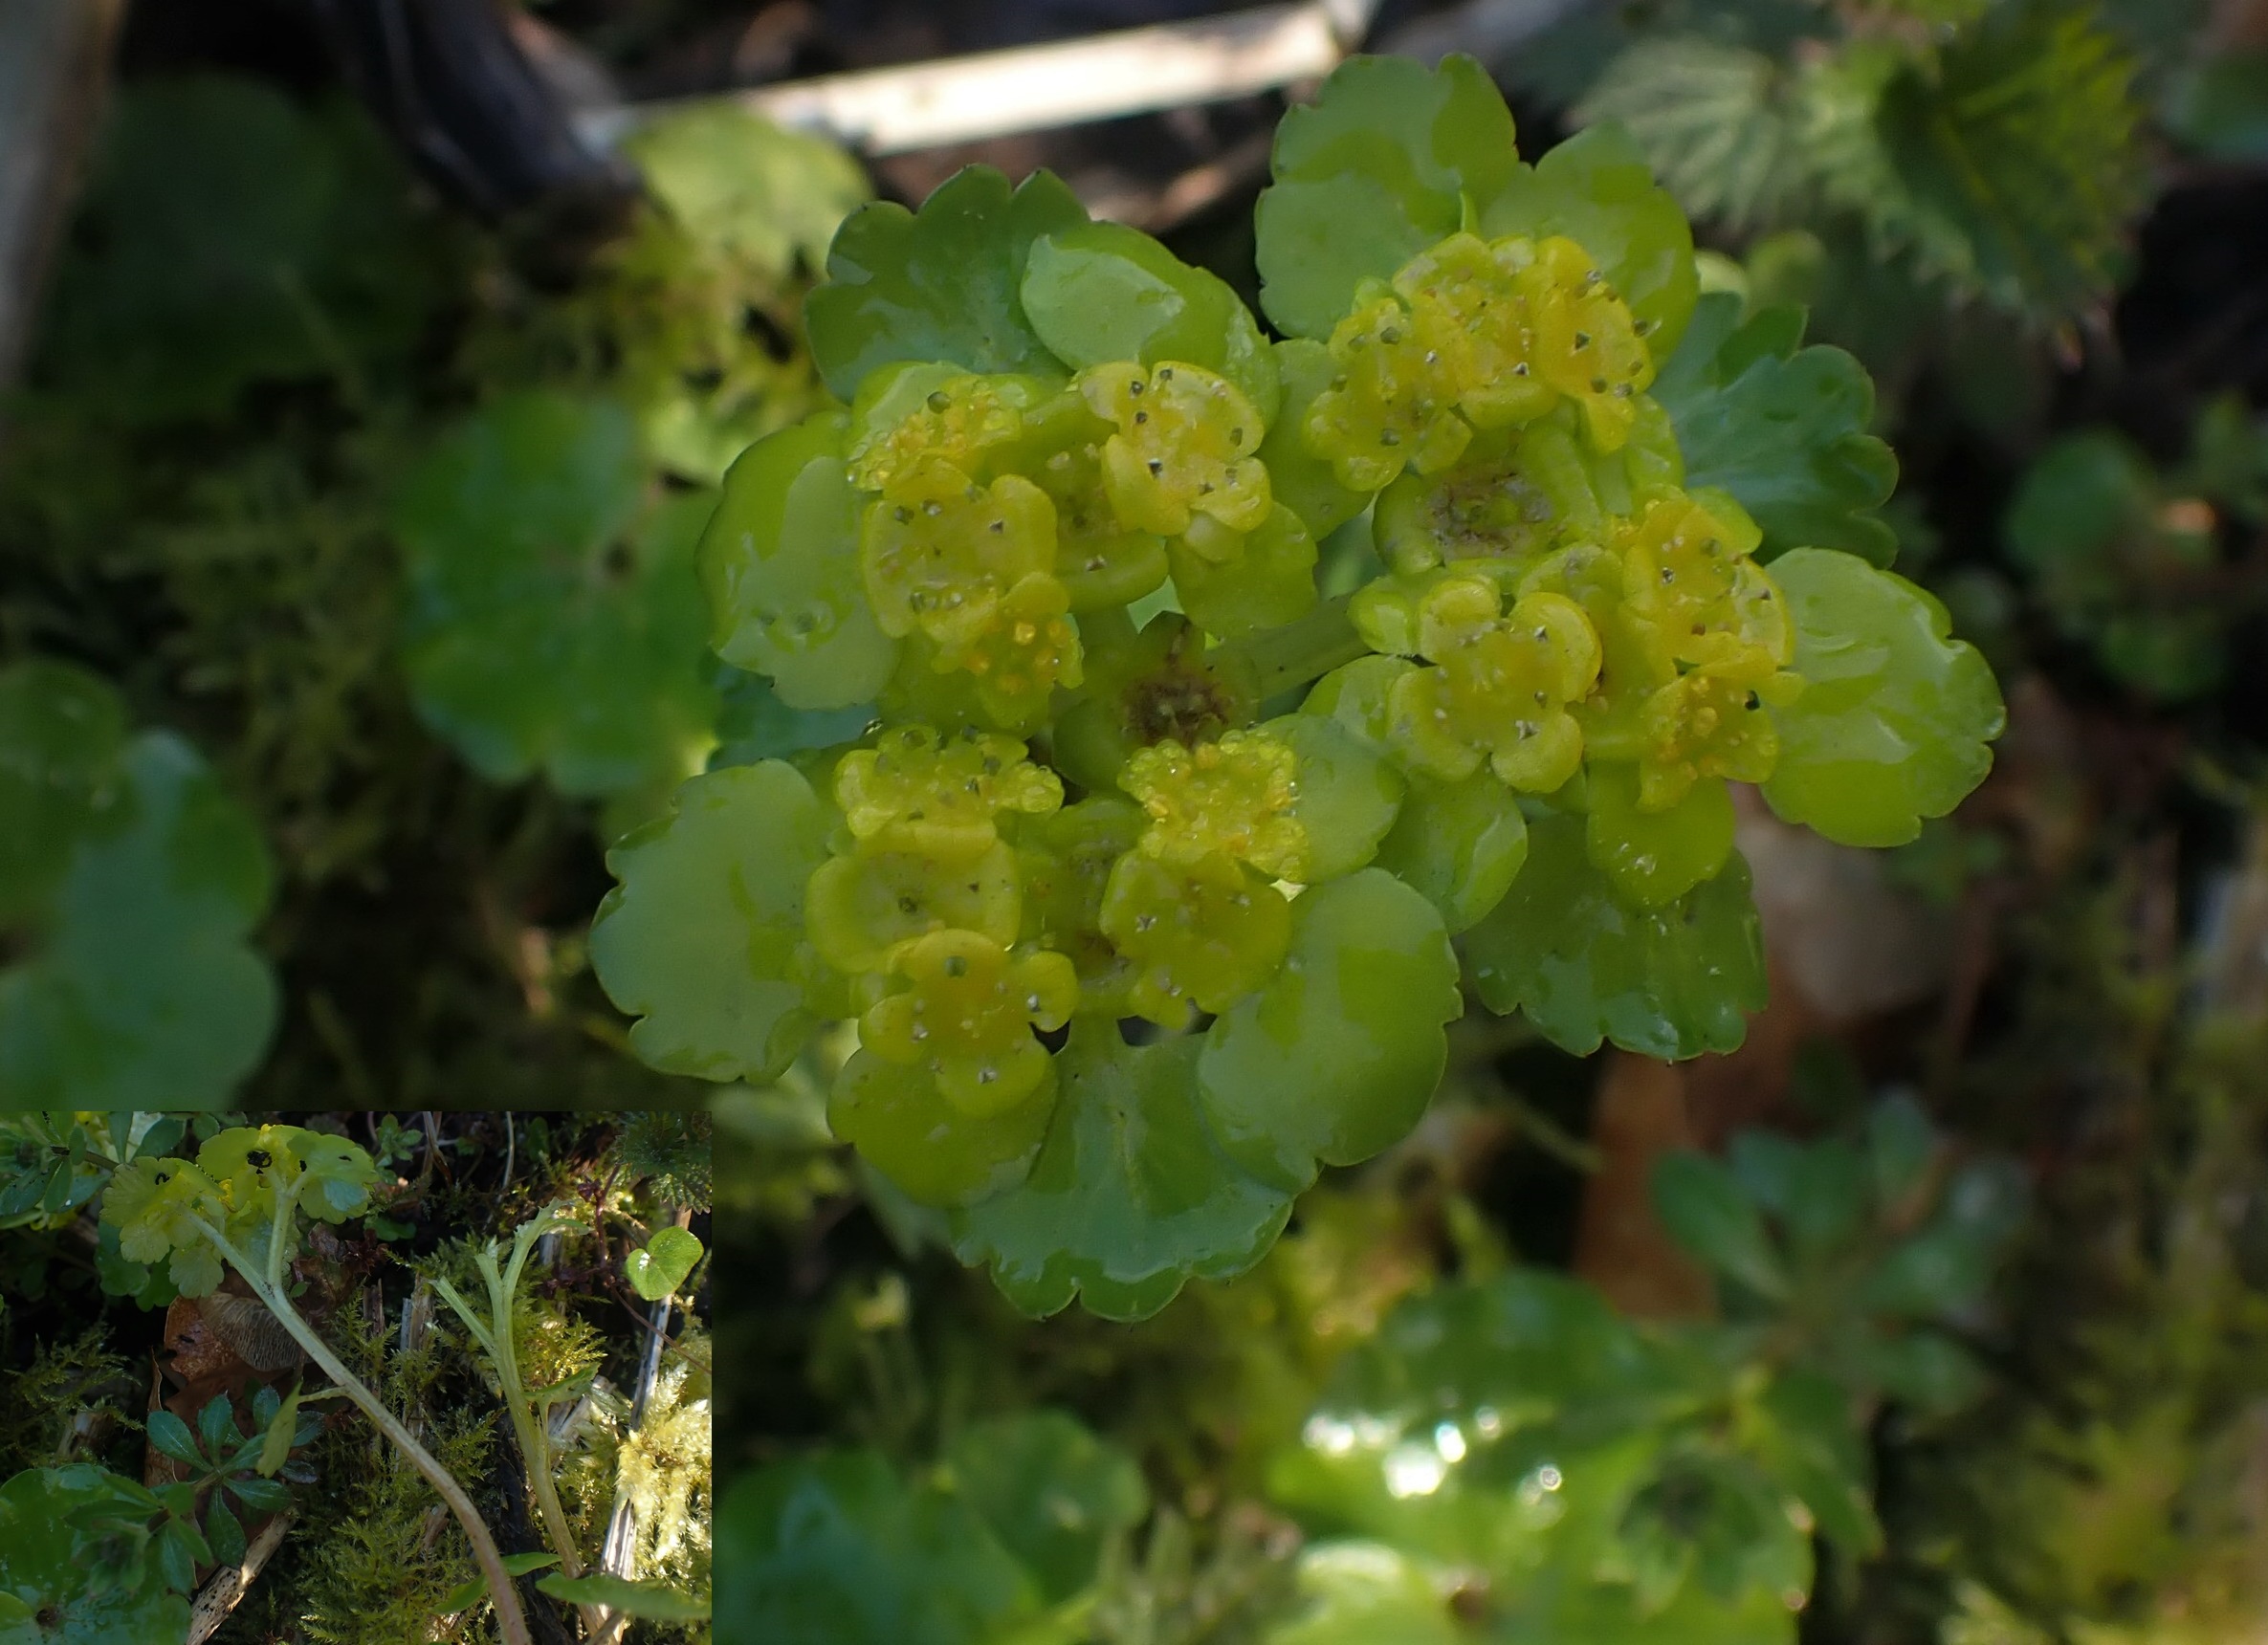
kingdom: Plantae
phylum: Tracheophyta
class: Magnoliopsida
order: Saxifragales
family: Saxifragaceae
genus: Chrysosplenium
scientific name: Chrysosplenium alternifolium
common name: Almindelig milturt
